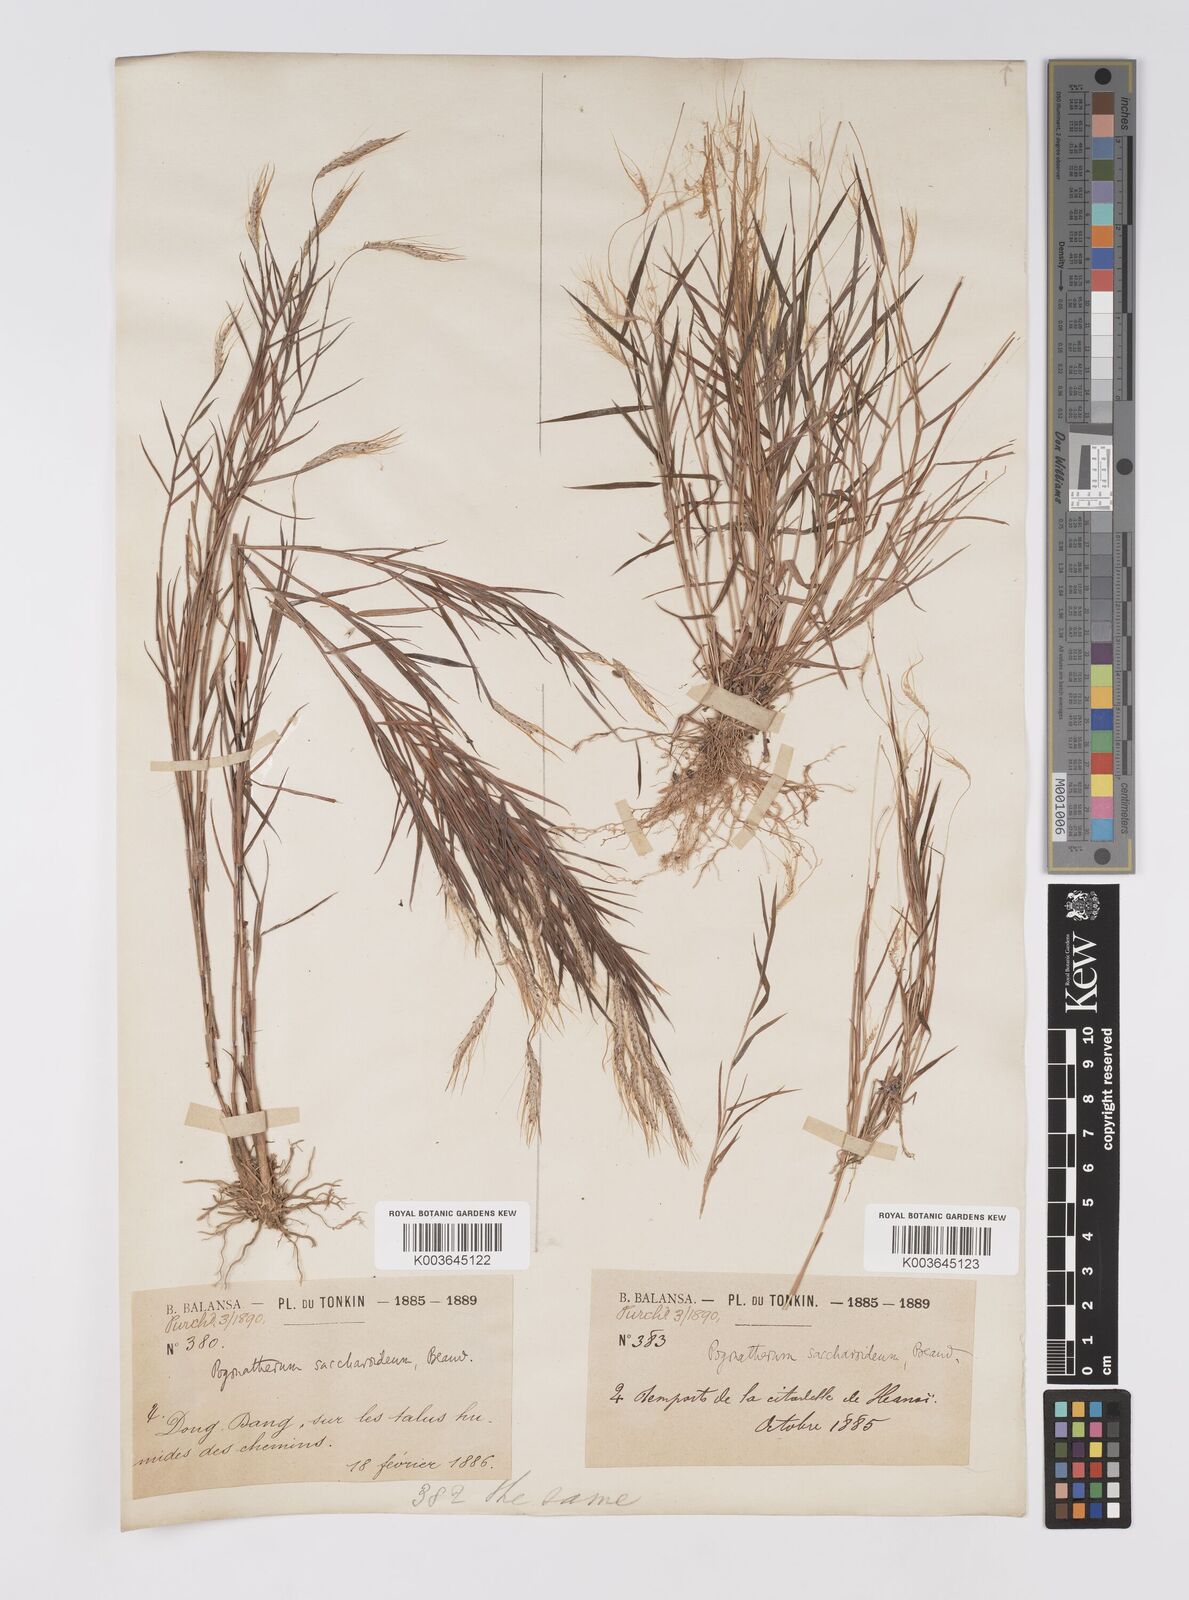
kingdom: Plantae
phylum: Tracheophyta
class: Liliopsida
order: Poales
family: Poaceae
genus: Pogonatherum
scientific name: Pogonatherum paniceum
